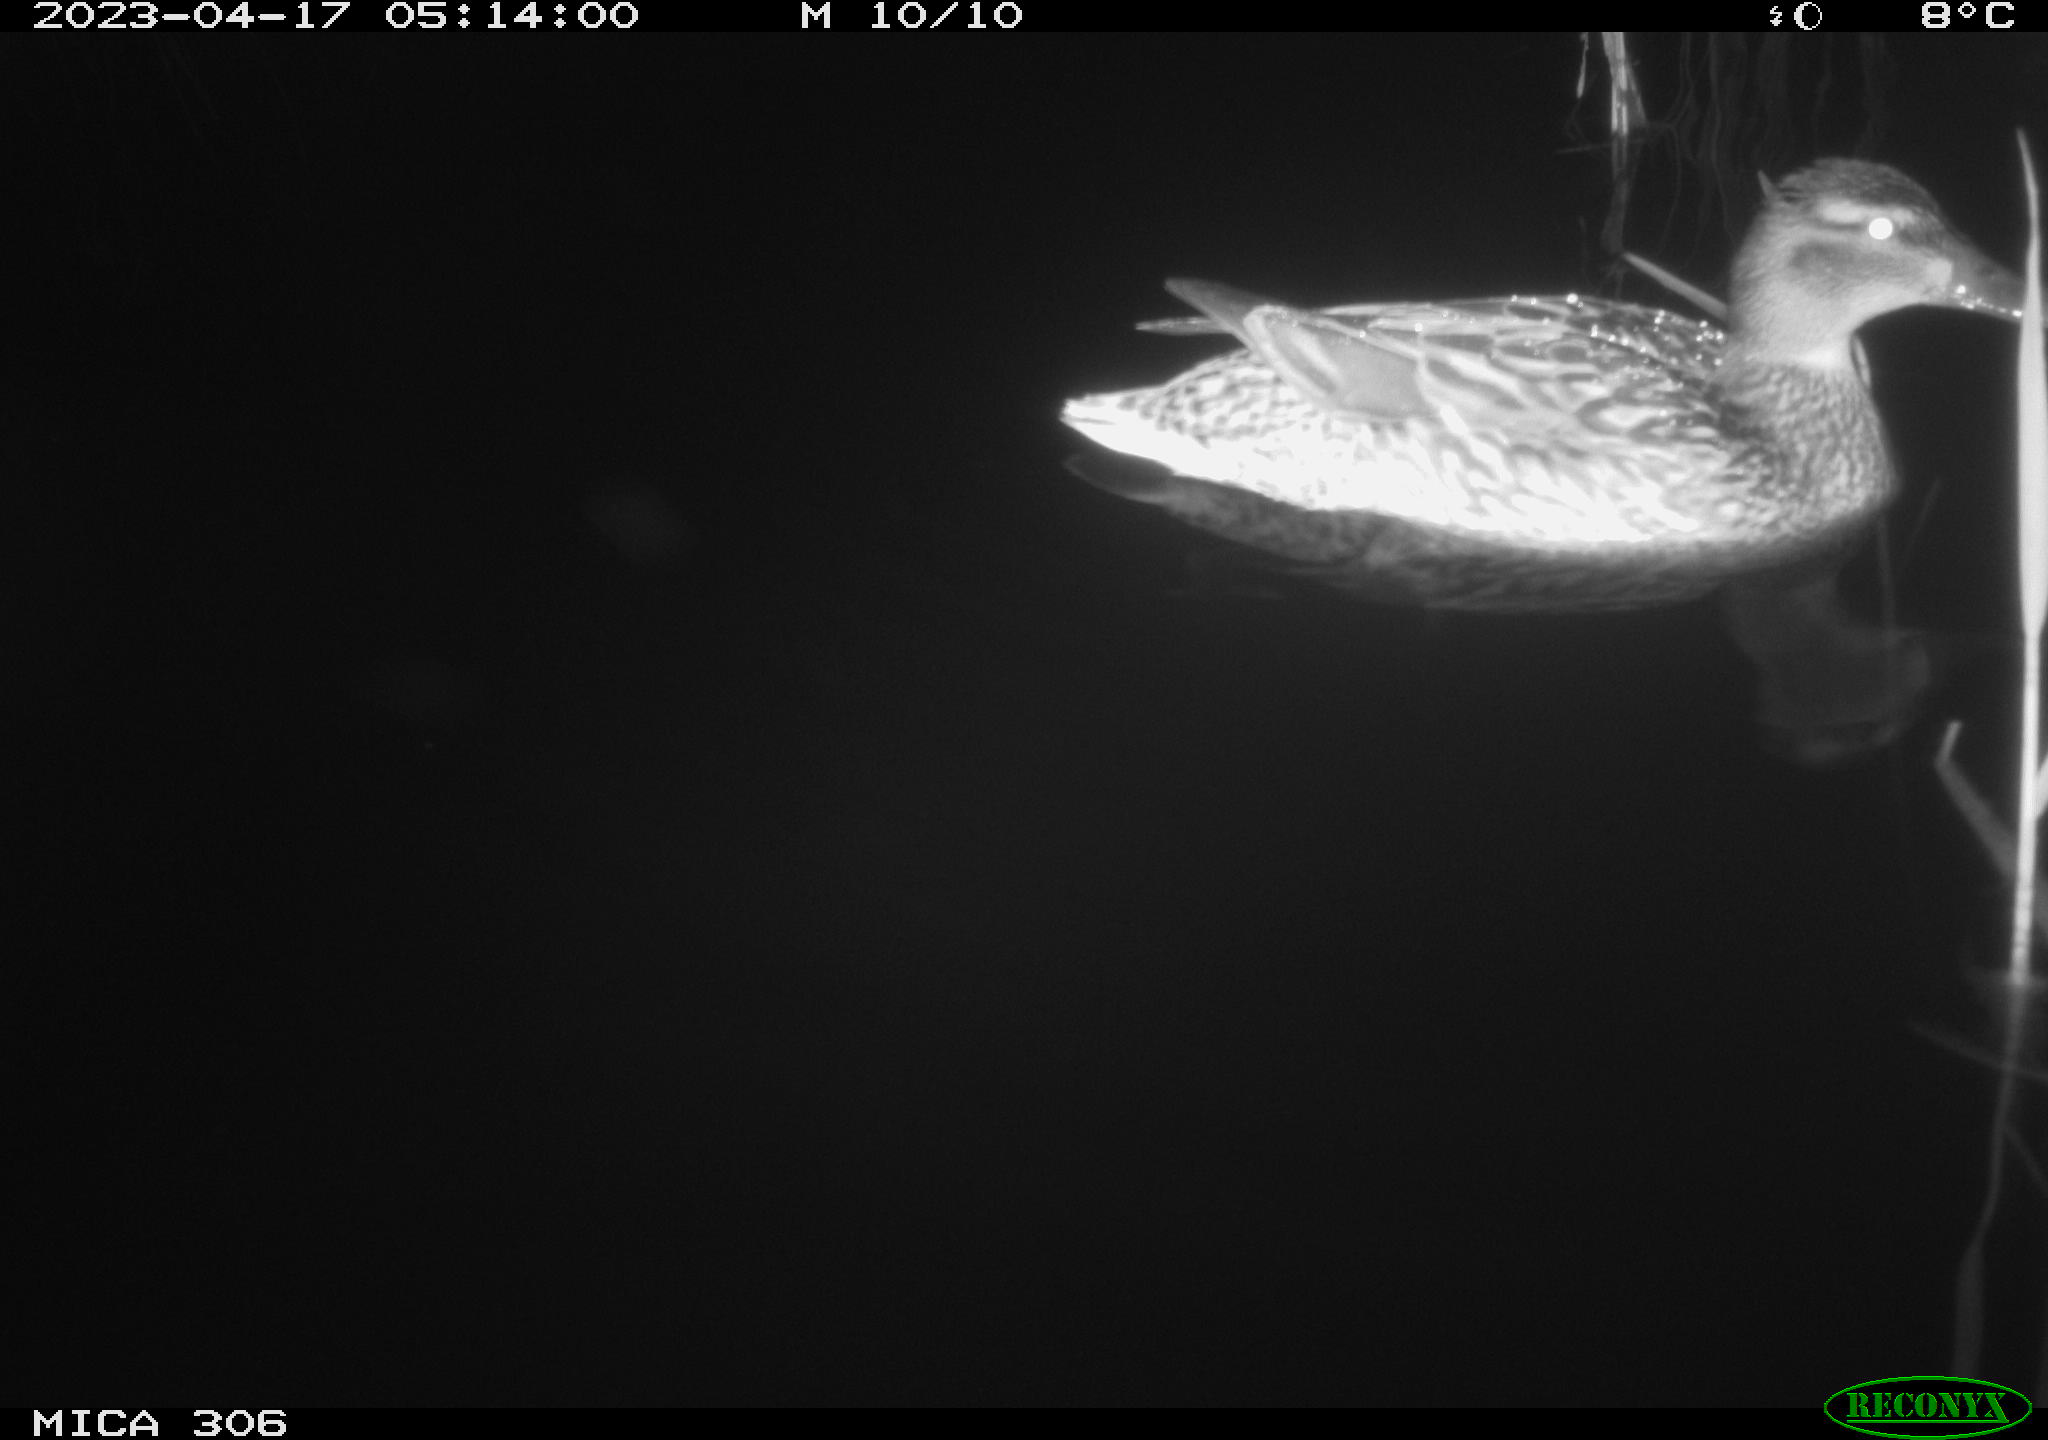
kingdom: Animalia
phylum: Chordata
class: Aves
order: Anseriformes
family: Anatidae
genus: Anas
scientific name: Anas
